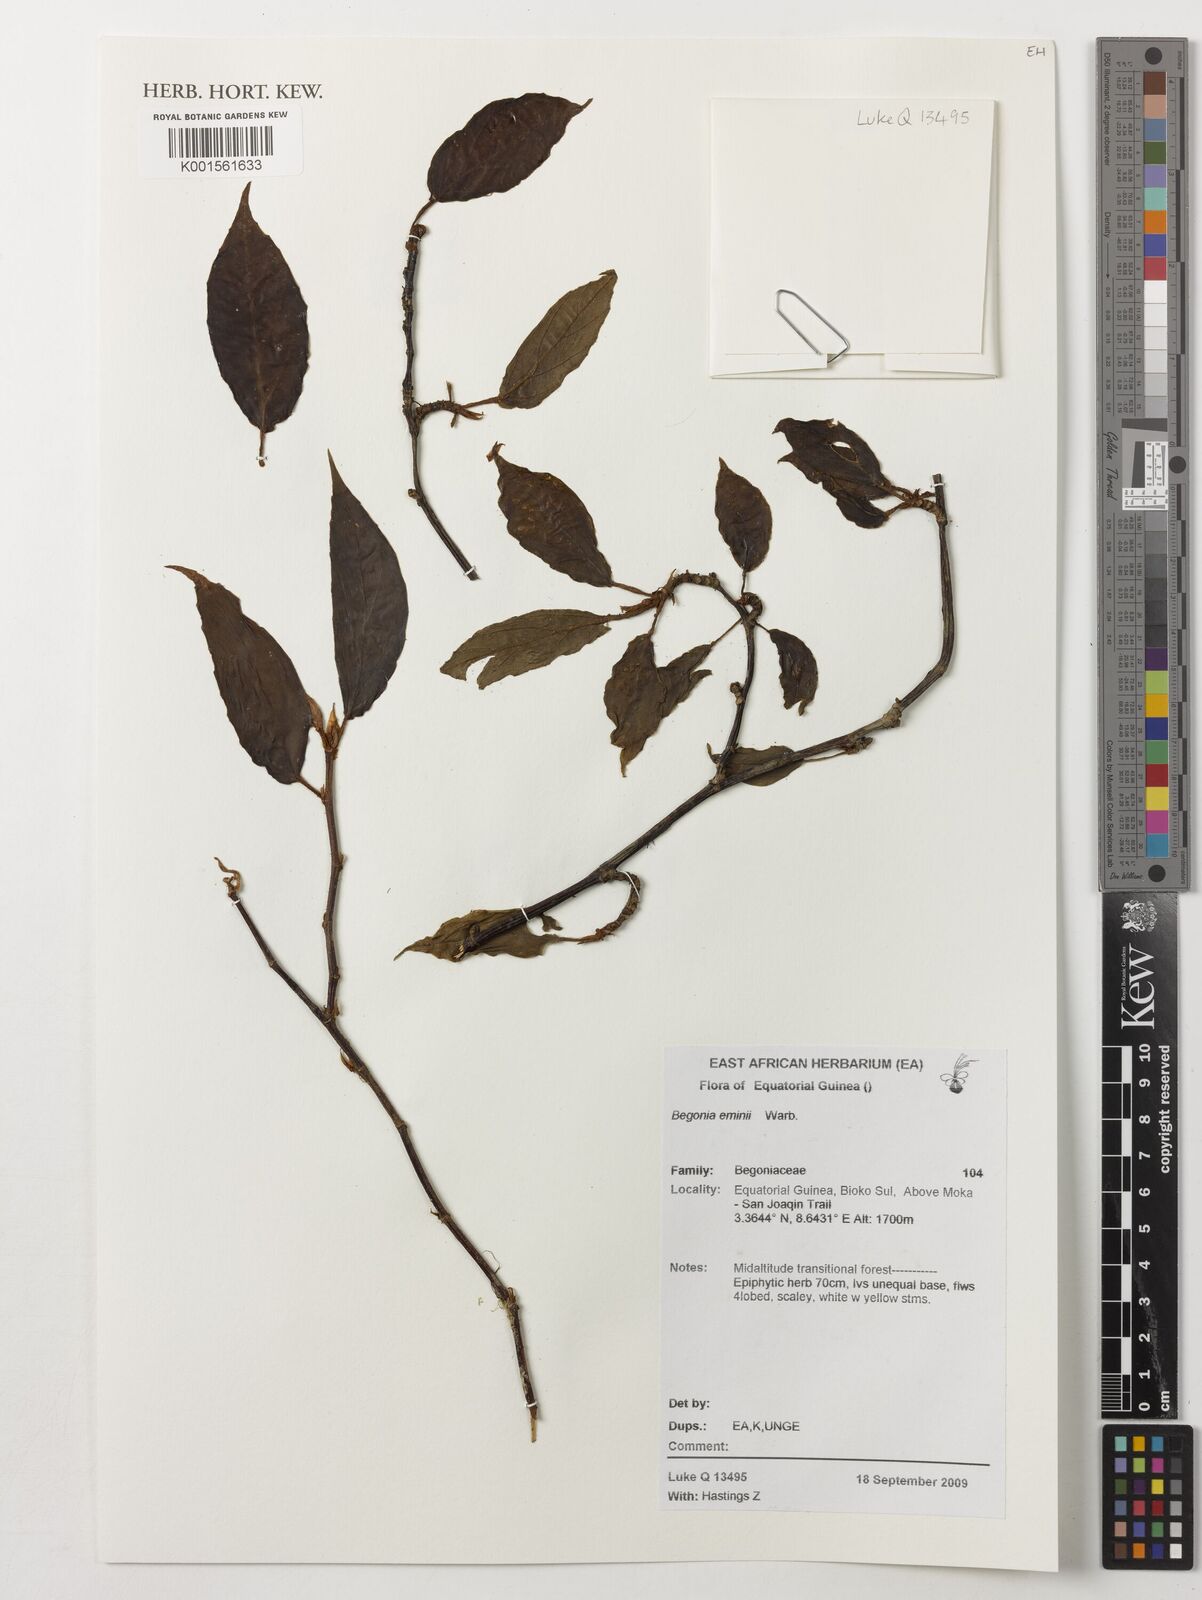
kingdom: Plantae
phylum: Tracheophyta
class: Magnoliopsida
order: Cucurbitales
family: Begoniaceae
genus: Begonia
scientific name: Begonia eminii
